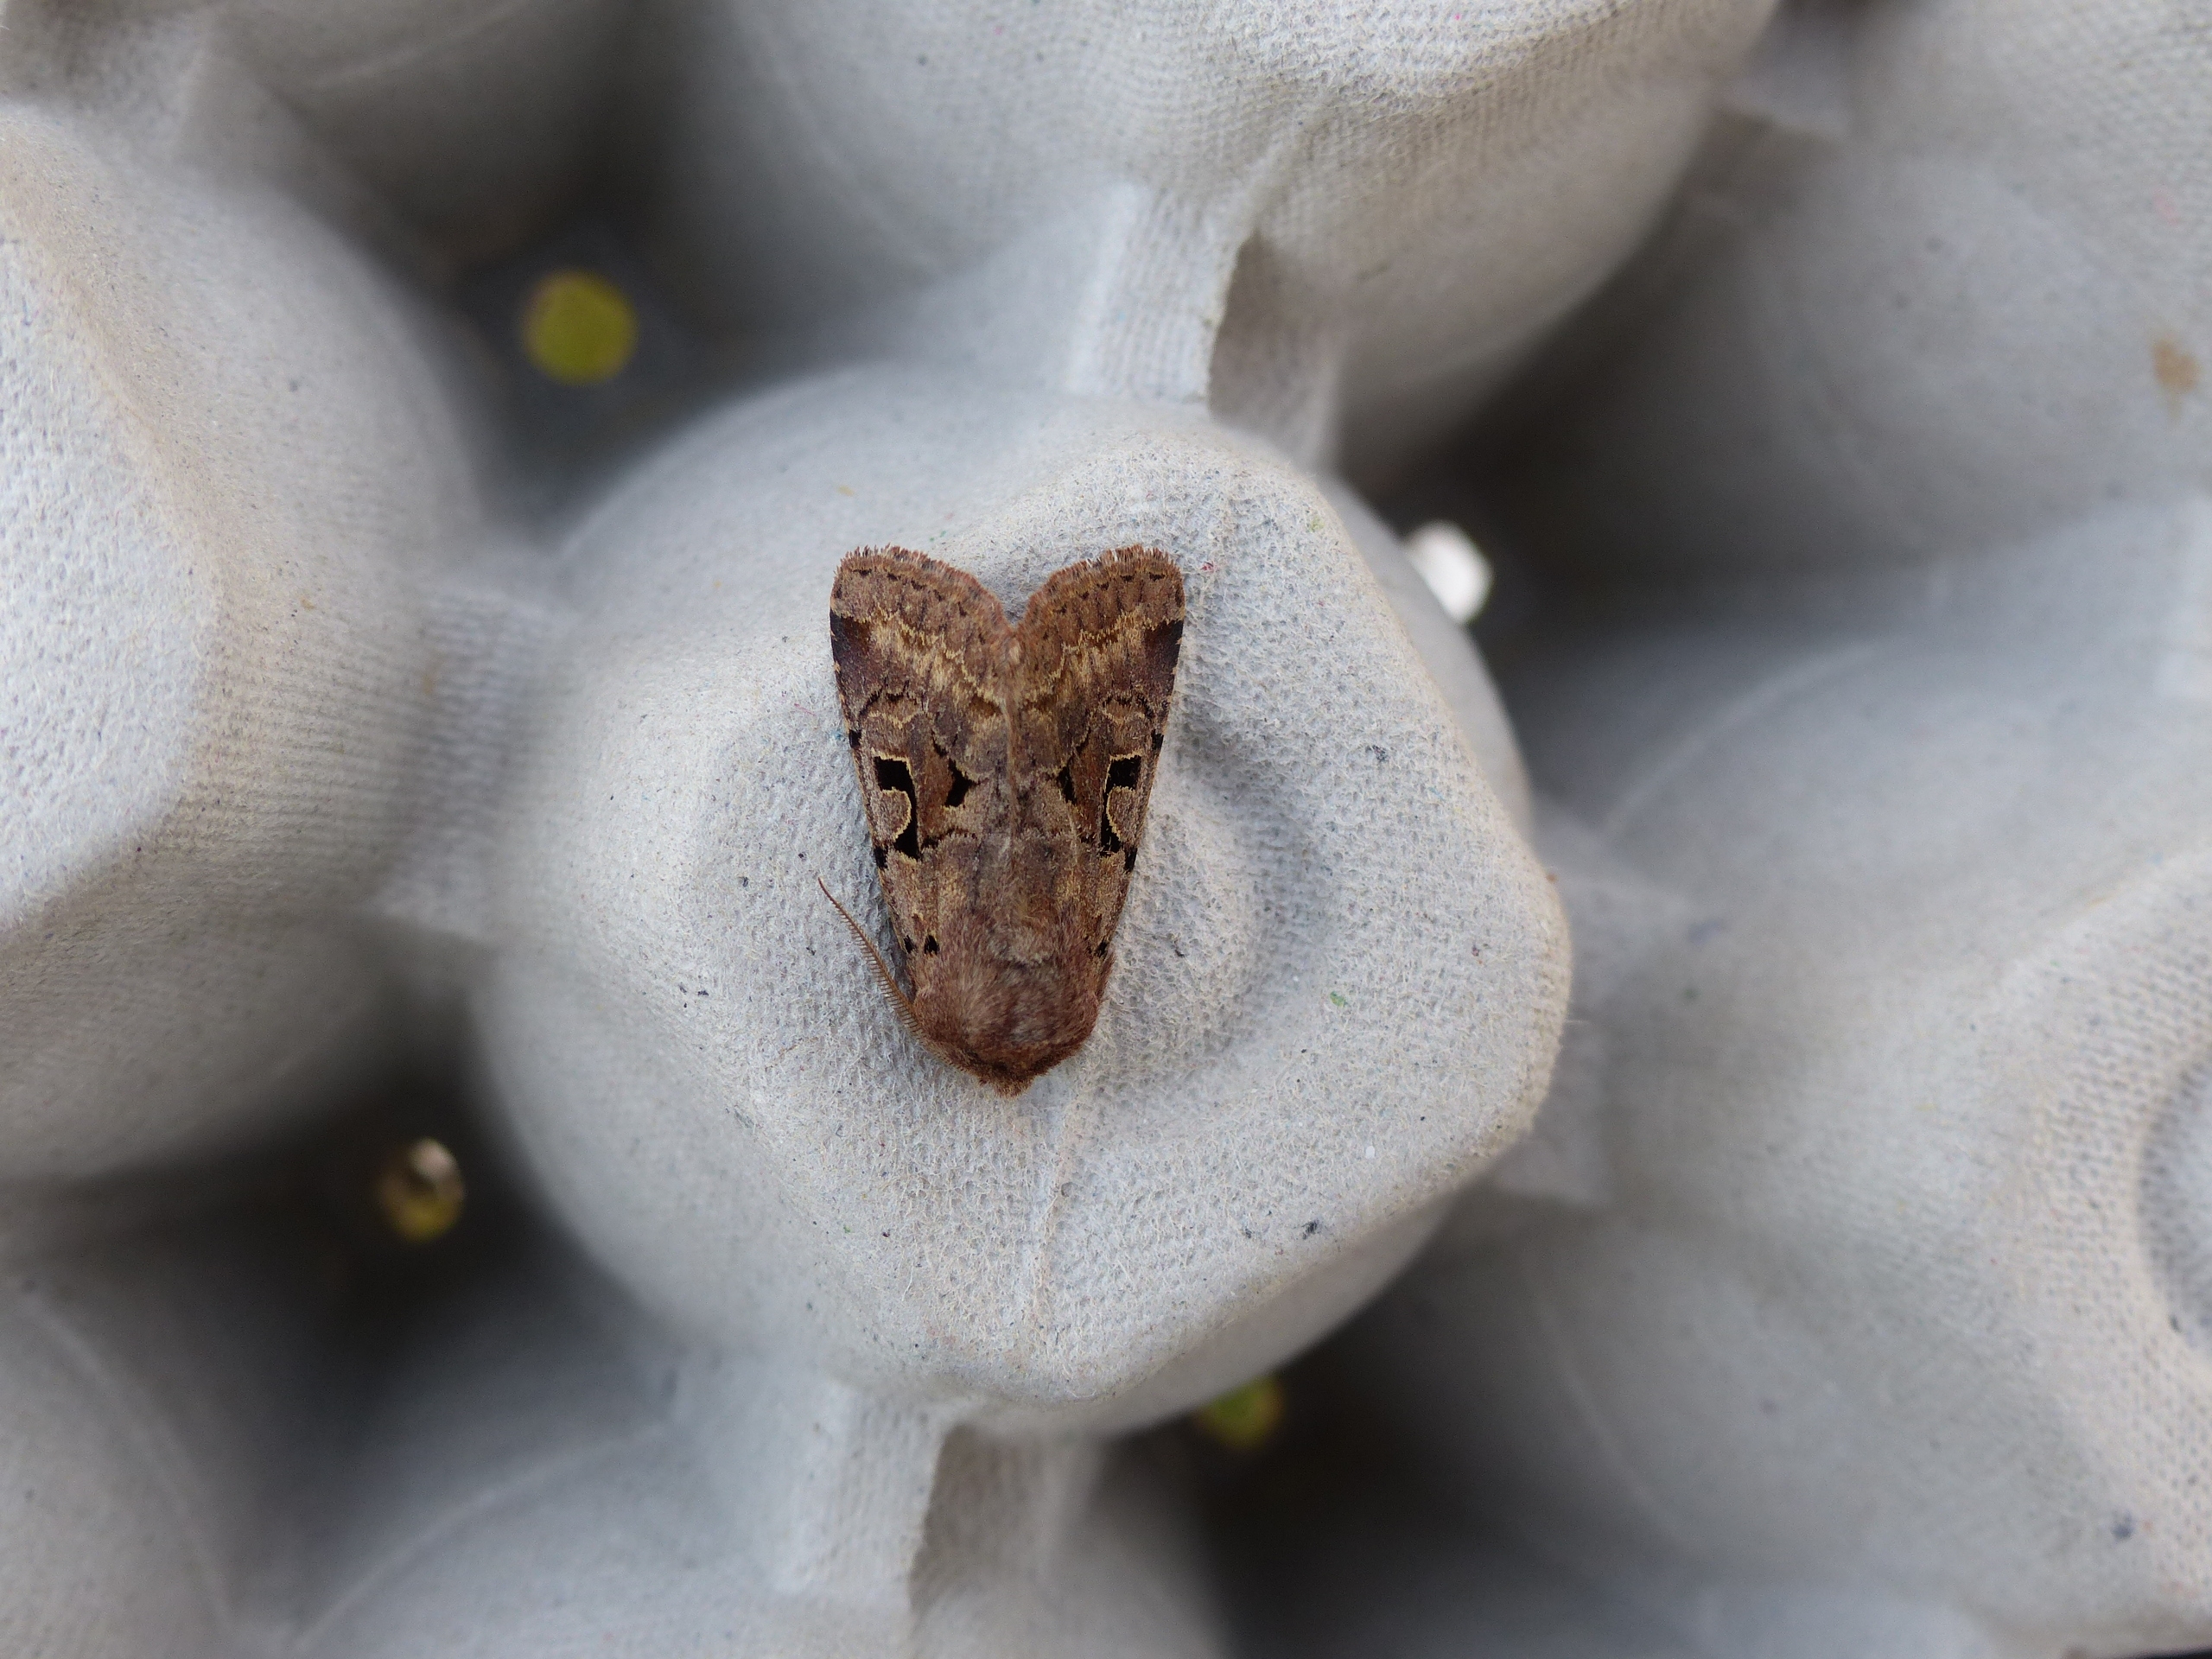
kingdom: Animalia
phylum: Arthropoda
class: Insecta
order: Lepidoptera
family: Noctuidae
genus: Orthosia
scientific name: Orthosia gothica
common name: Gotisk forårsugle
